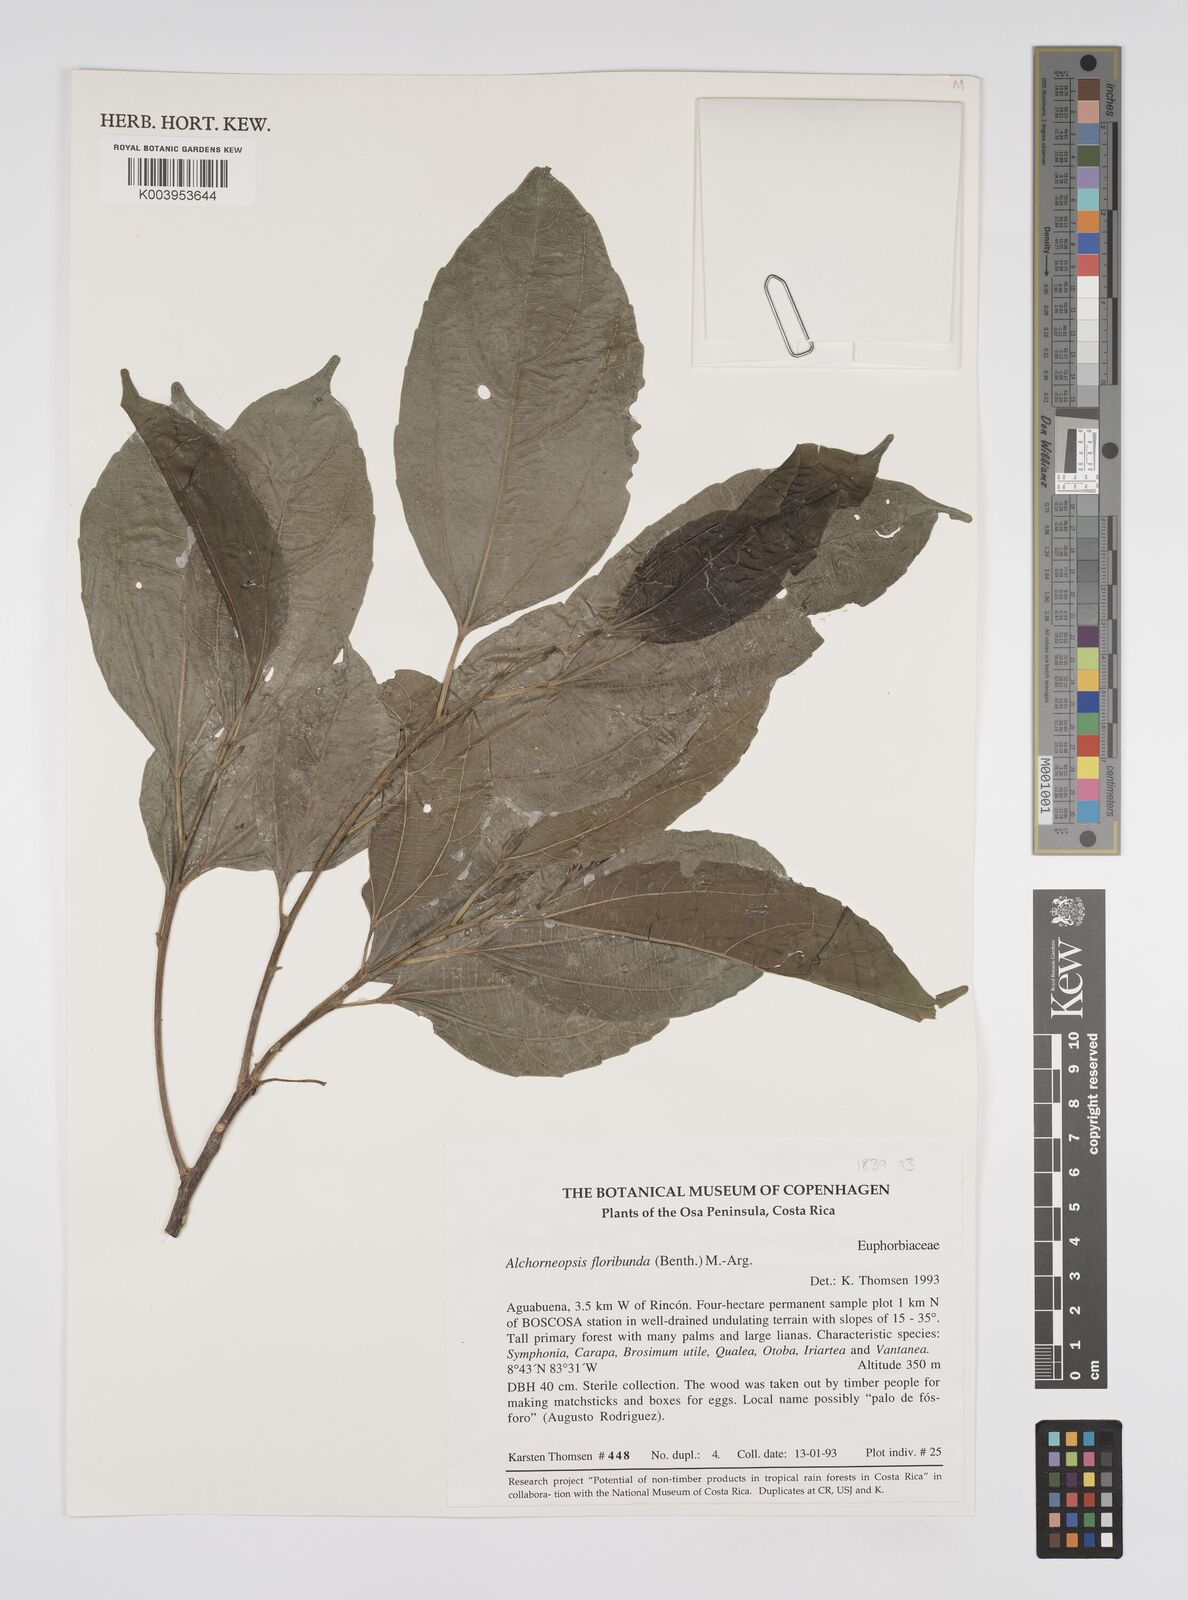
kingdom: Plantae
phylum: Tracheophyta
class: Magnoliopsida
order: Malpighiales
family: Euphorbiaceae
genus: Alchorneopsis
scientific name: Alchorneopsis floribunda
